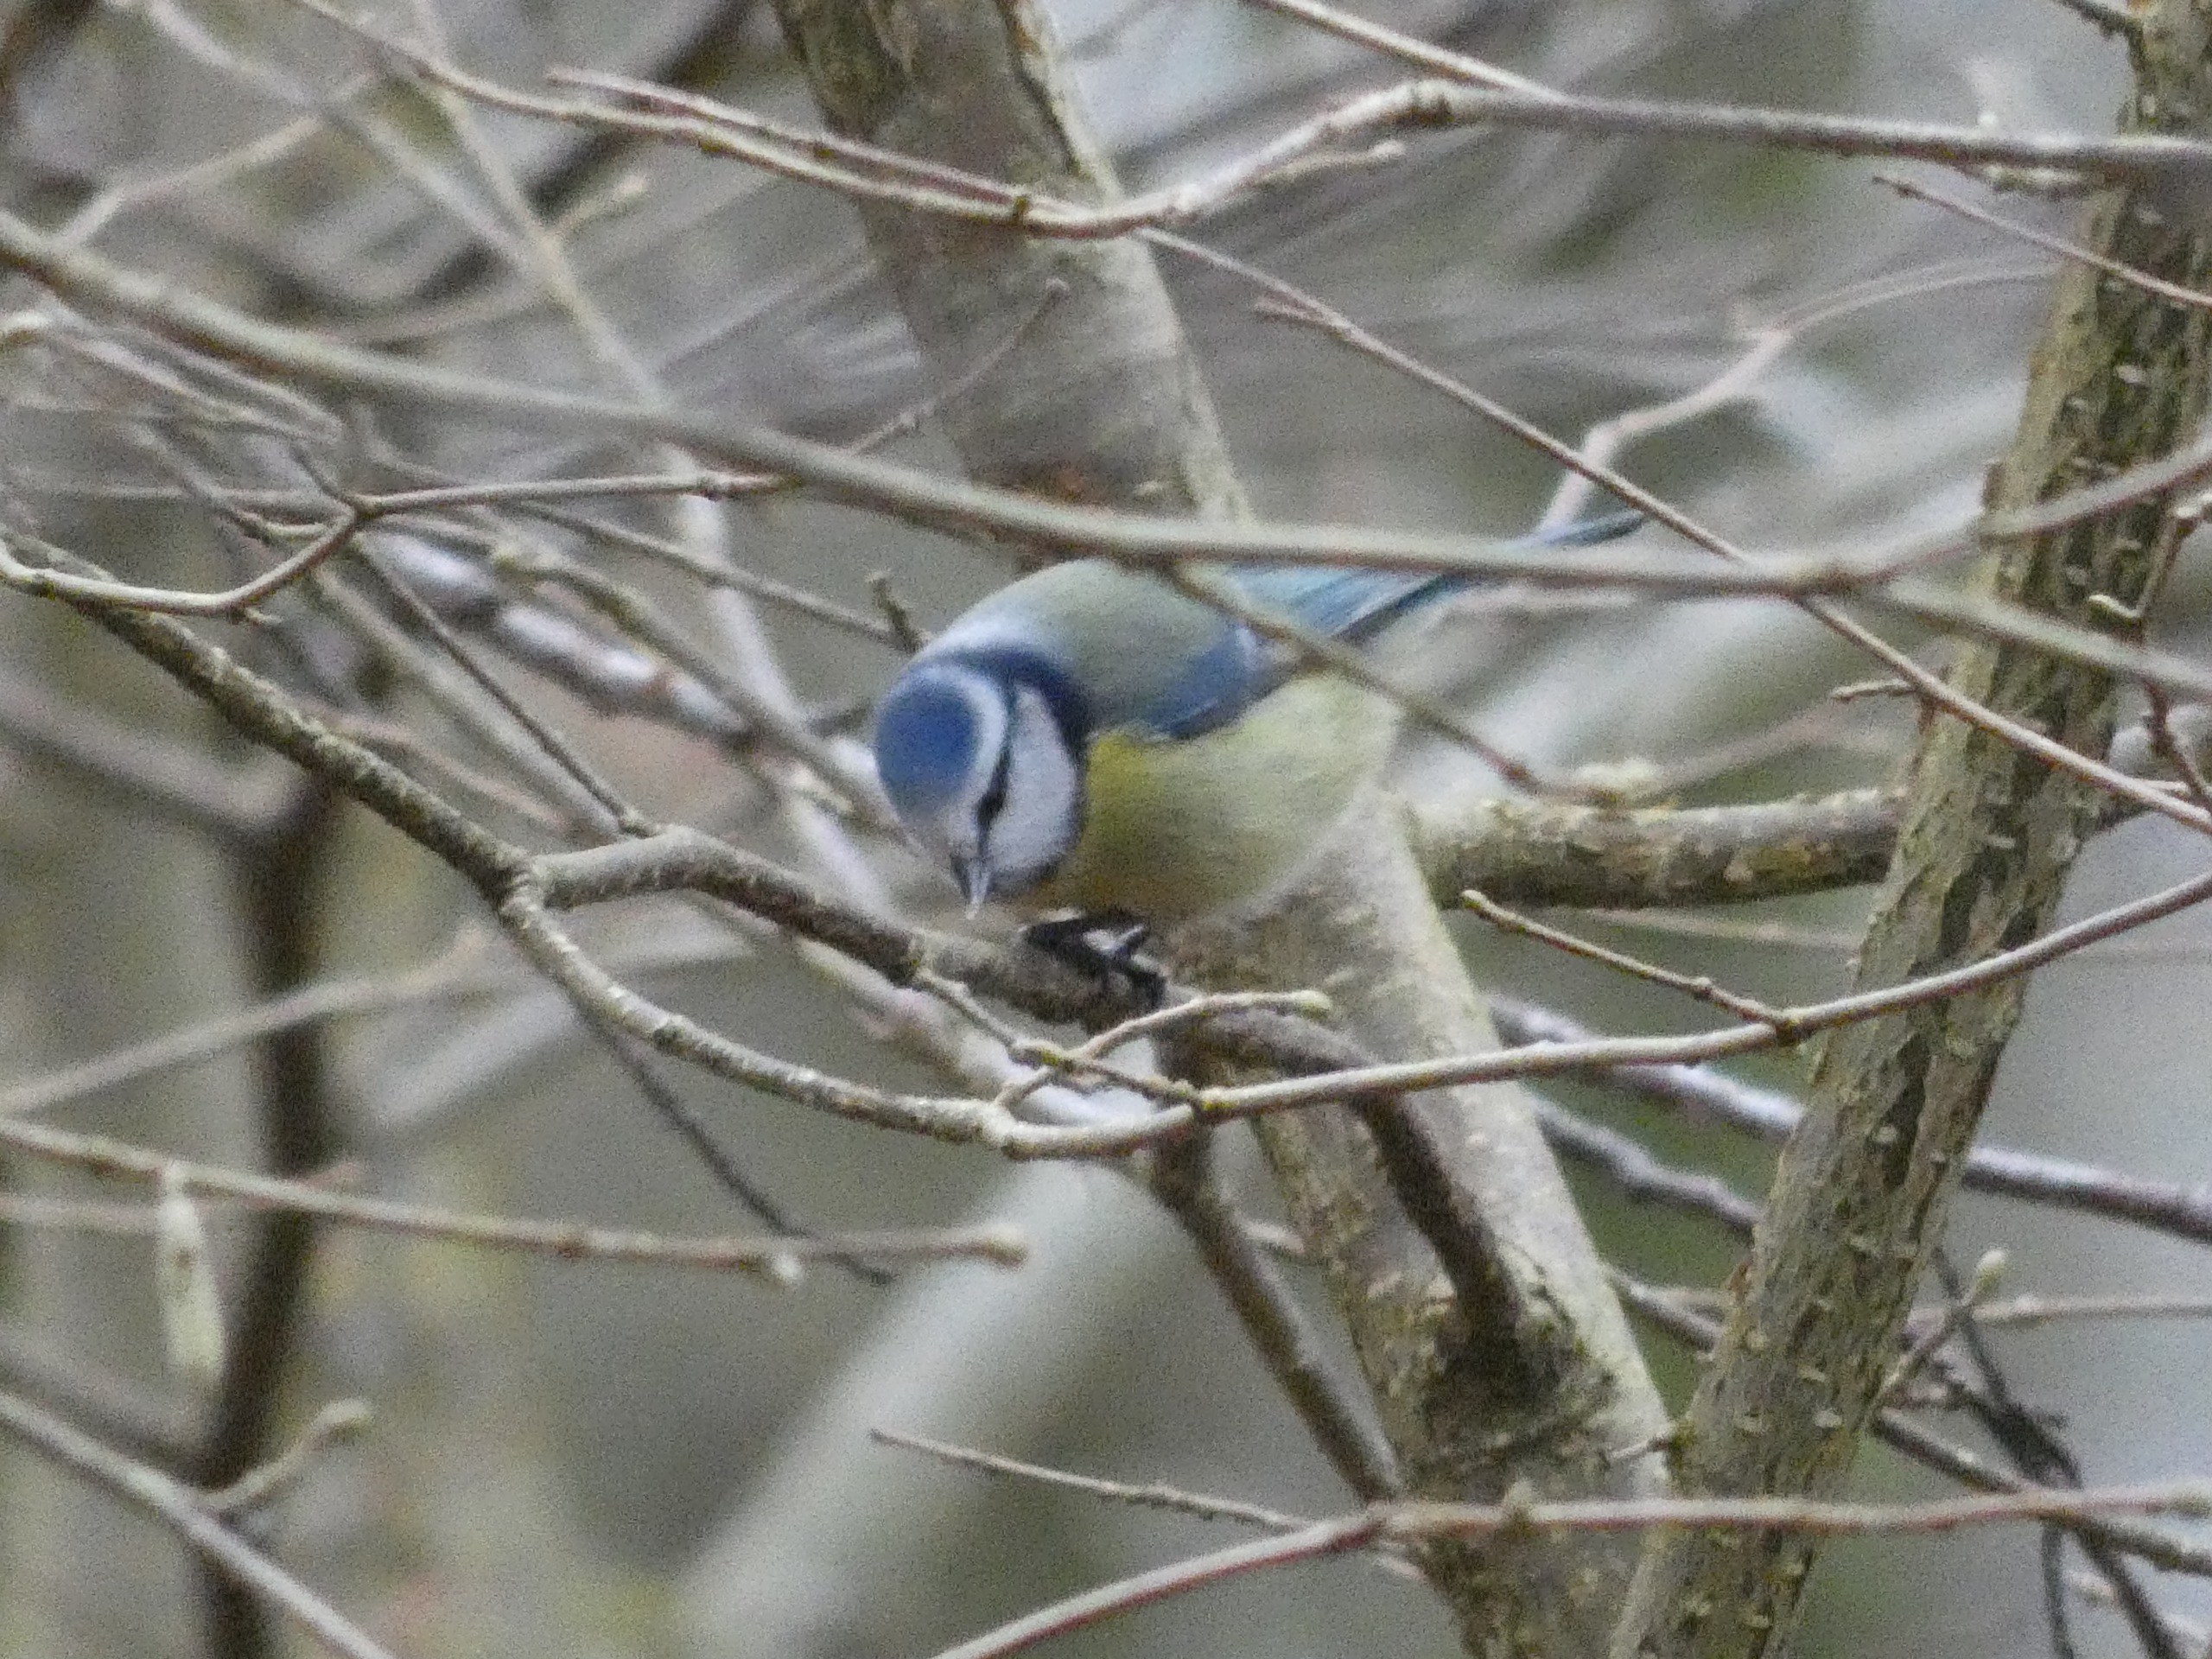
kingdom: Animalia
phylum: Chordata
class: Aves
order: Passeriformes
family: Paridae
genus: Cyanistes
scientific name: Cyanistes caeruleus
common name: Blåmejse
